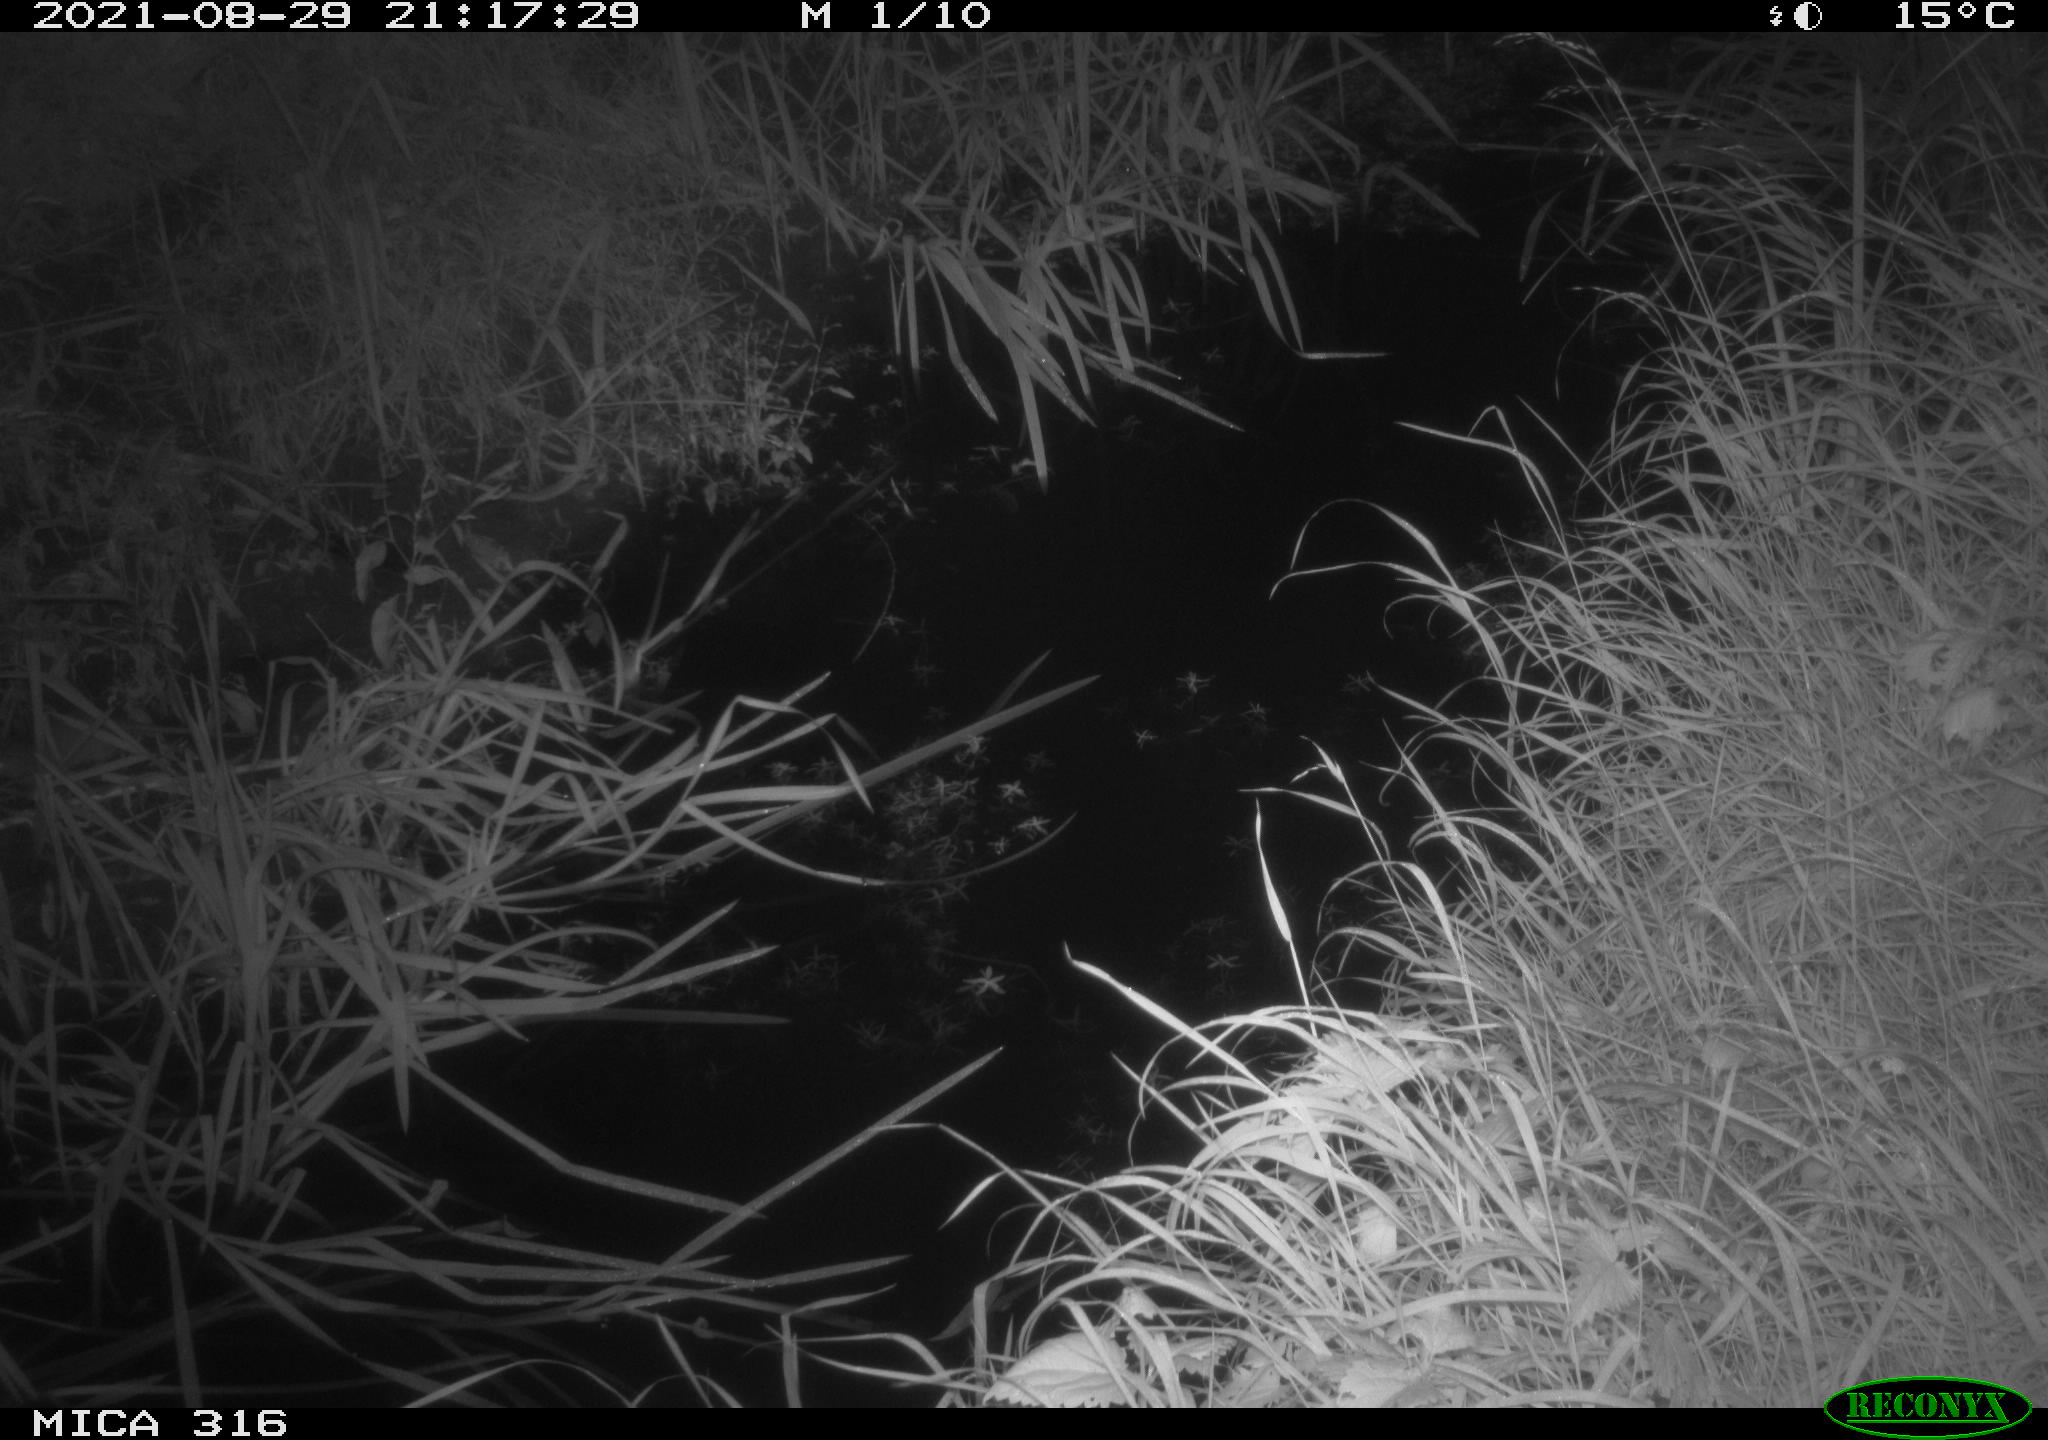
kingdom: Animalia
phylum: Chordata
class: Mammalia
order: Rodentia
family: Muridae
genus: Rattus
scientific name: Rattus norvegicus
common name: Brown rat
